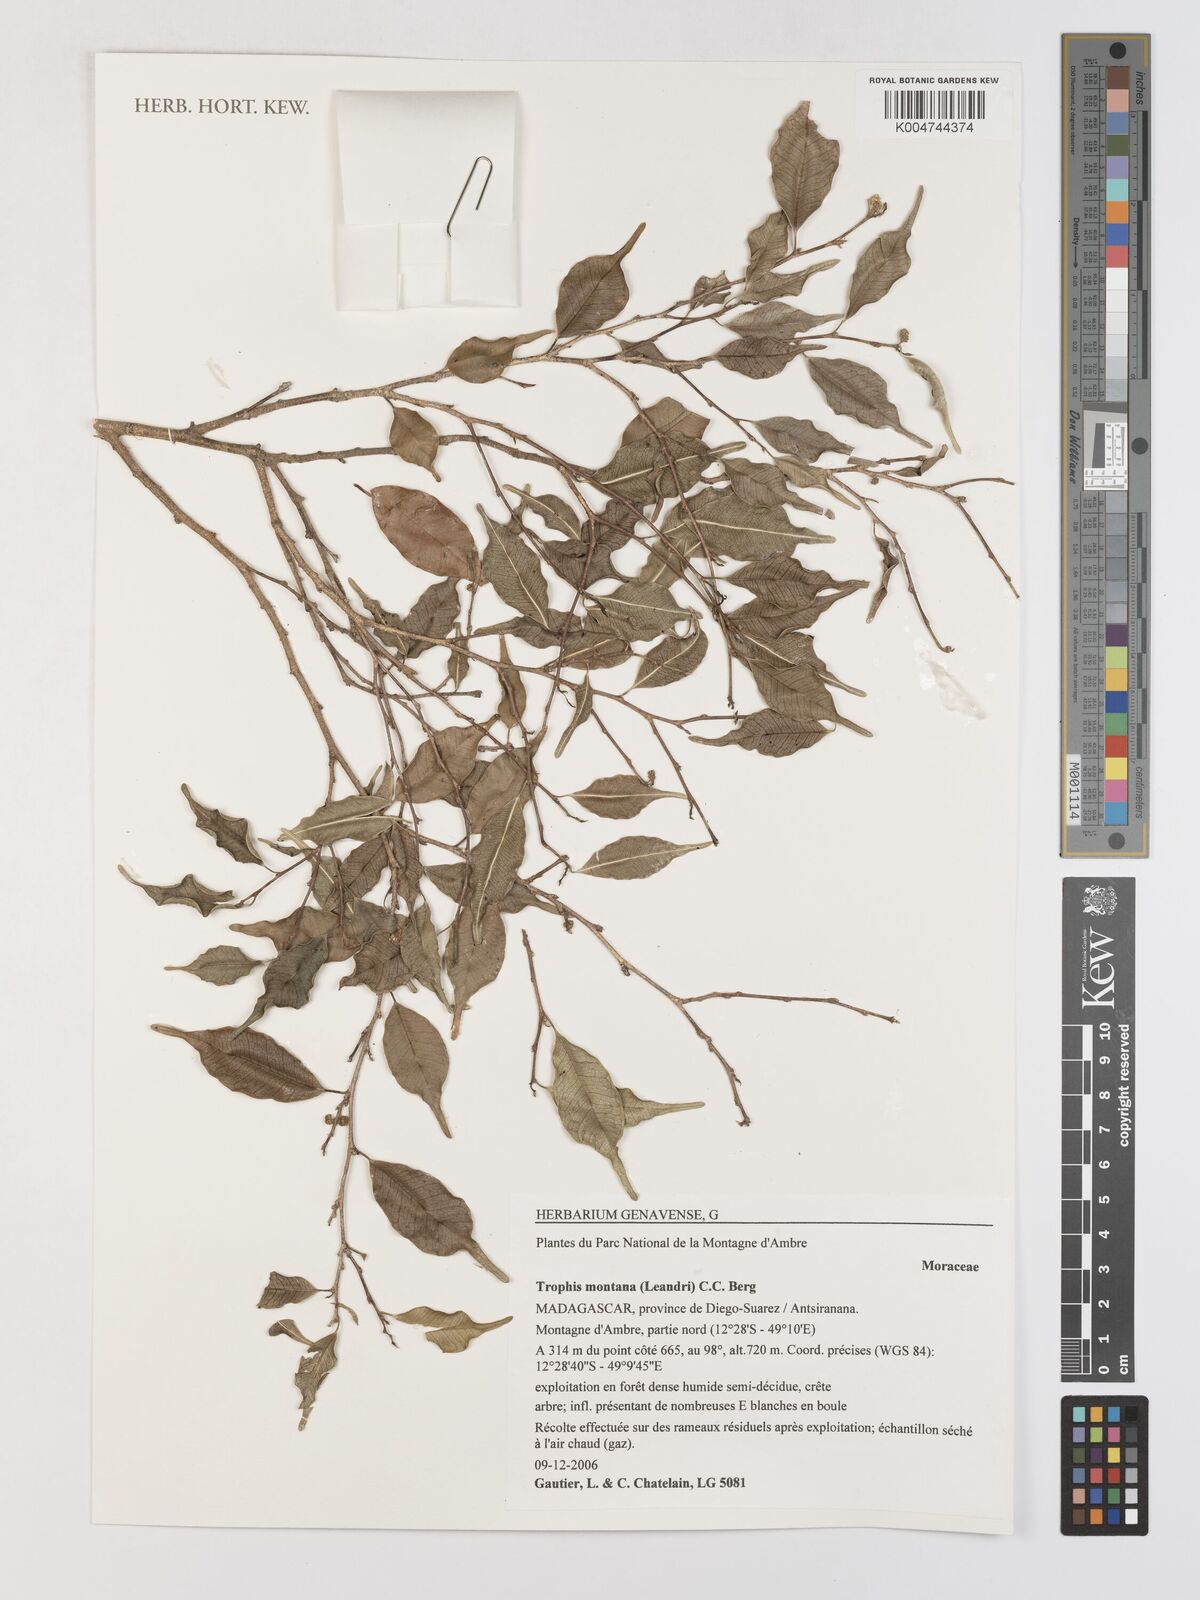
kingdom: Plantae
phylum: Tracheophyta
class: Magnoliopsida
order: Rosales
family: Moraceae
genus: Maillardia
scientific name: Maillardia montana
